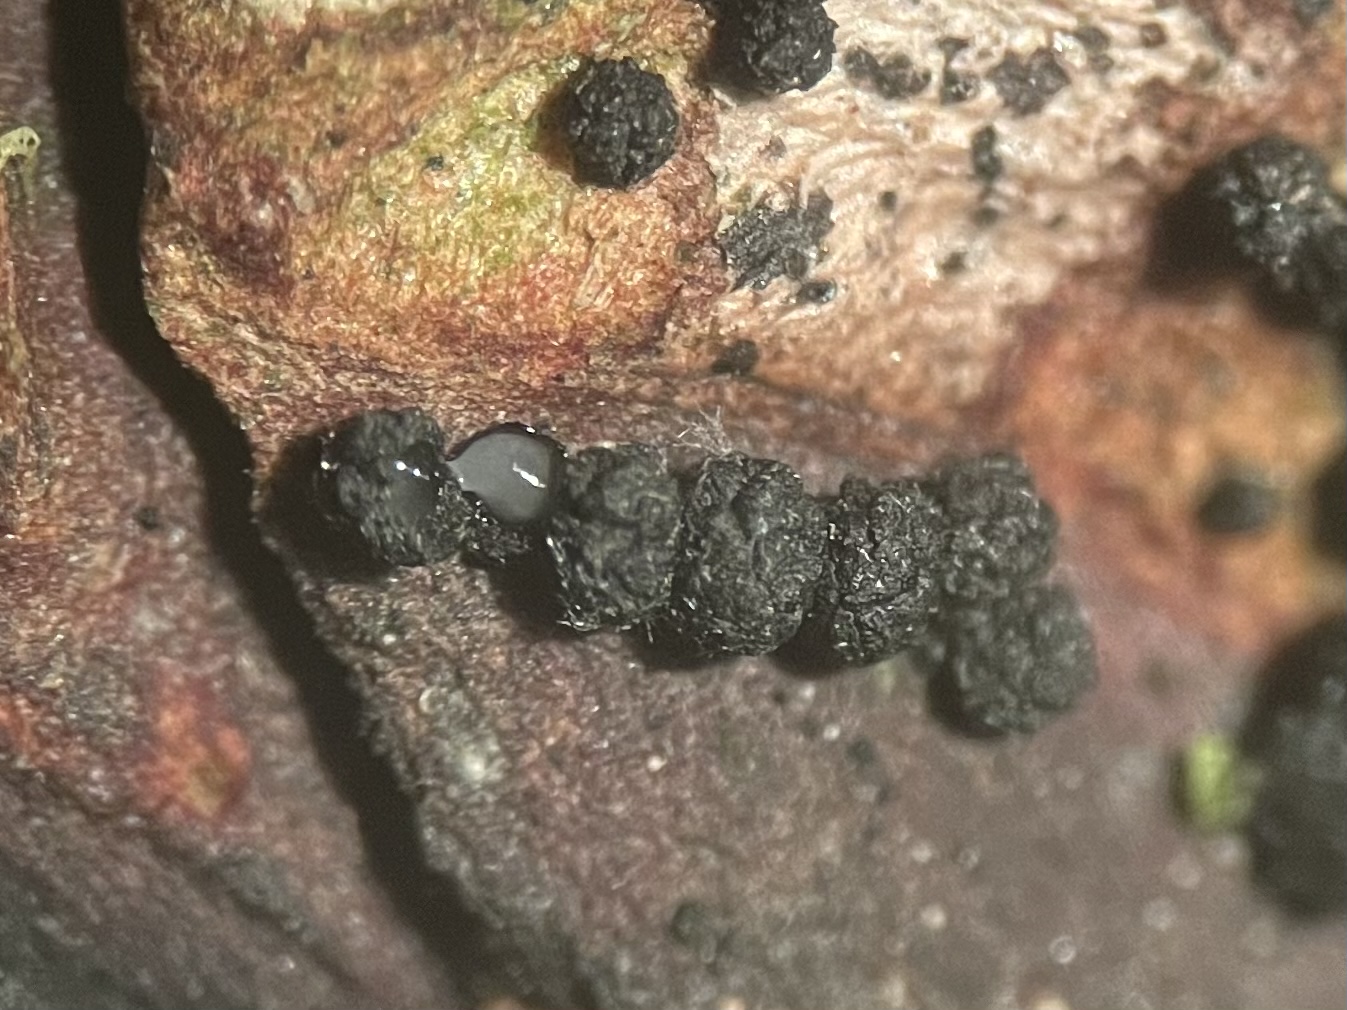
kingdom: Fungi
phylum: Ascomycota
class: Sordariomycetes
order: Coronophorales
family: Bertiaceae
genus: Bertia
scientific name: Bertia moriformis
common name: almindelig morbærkerne
